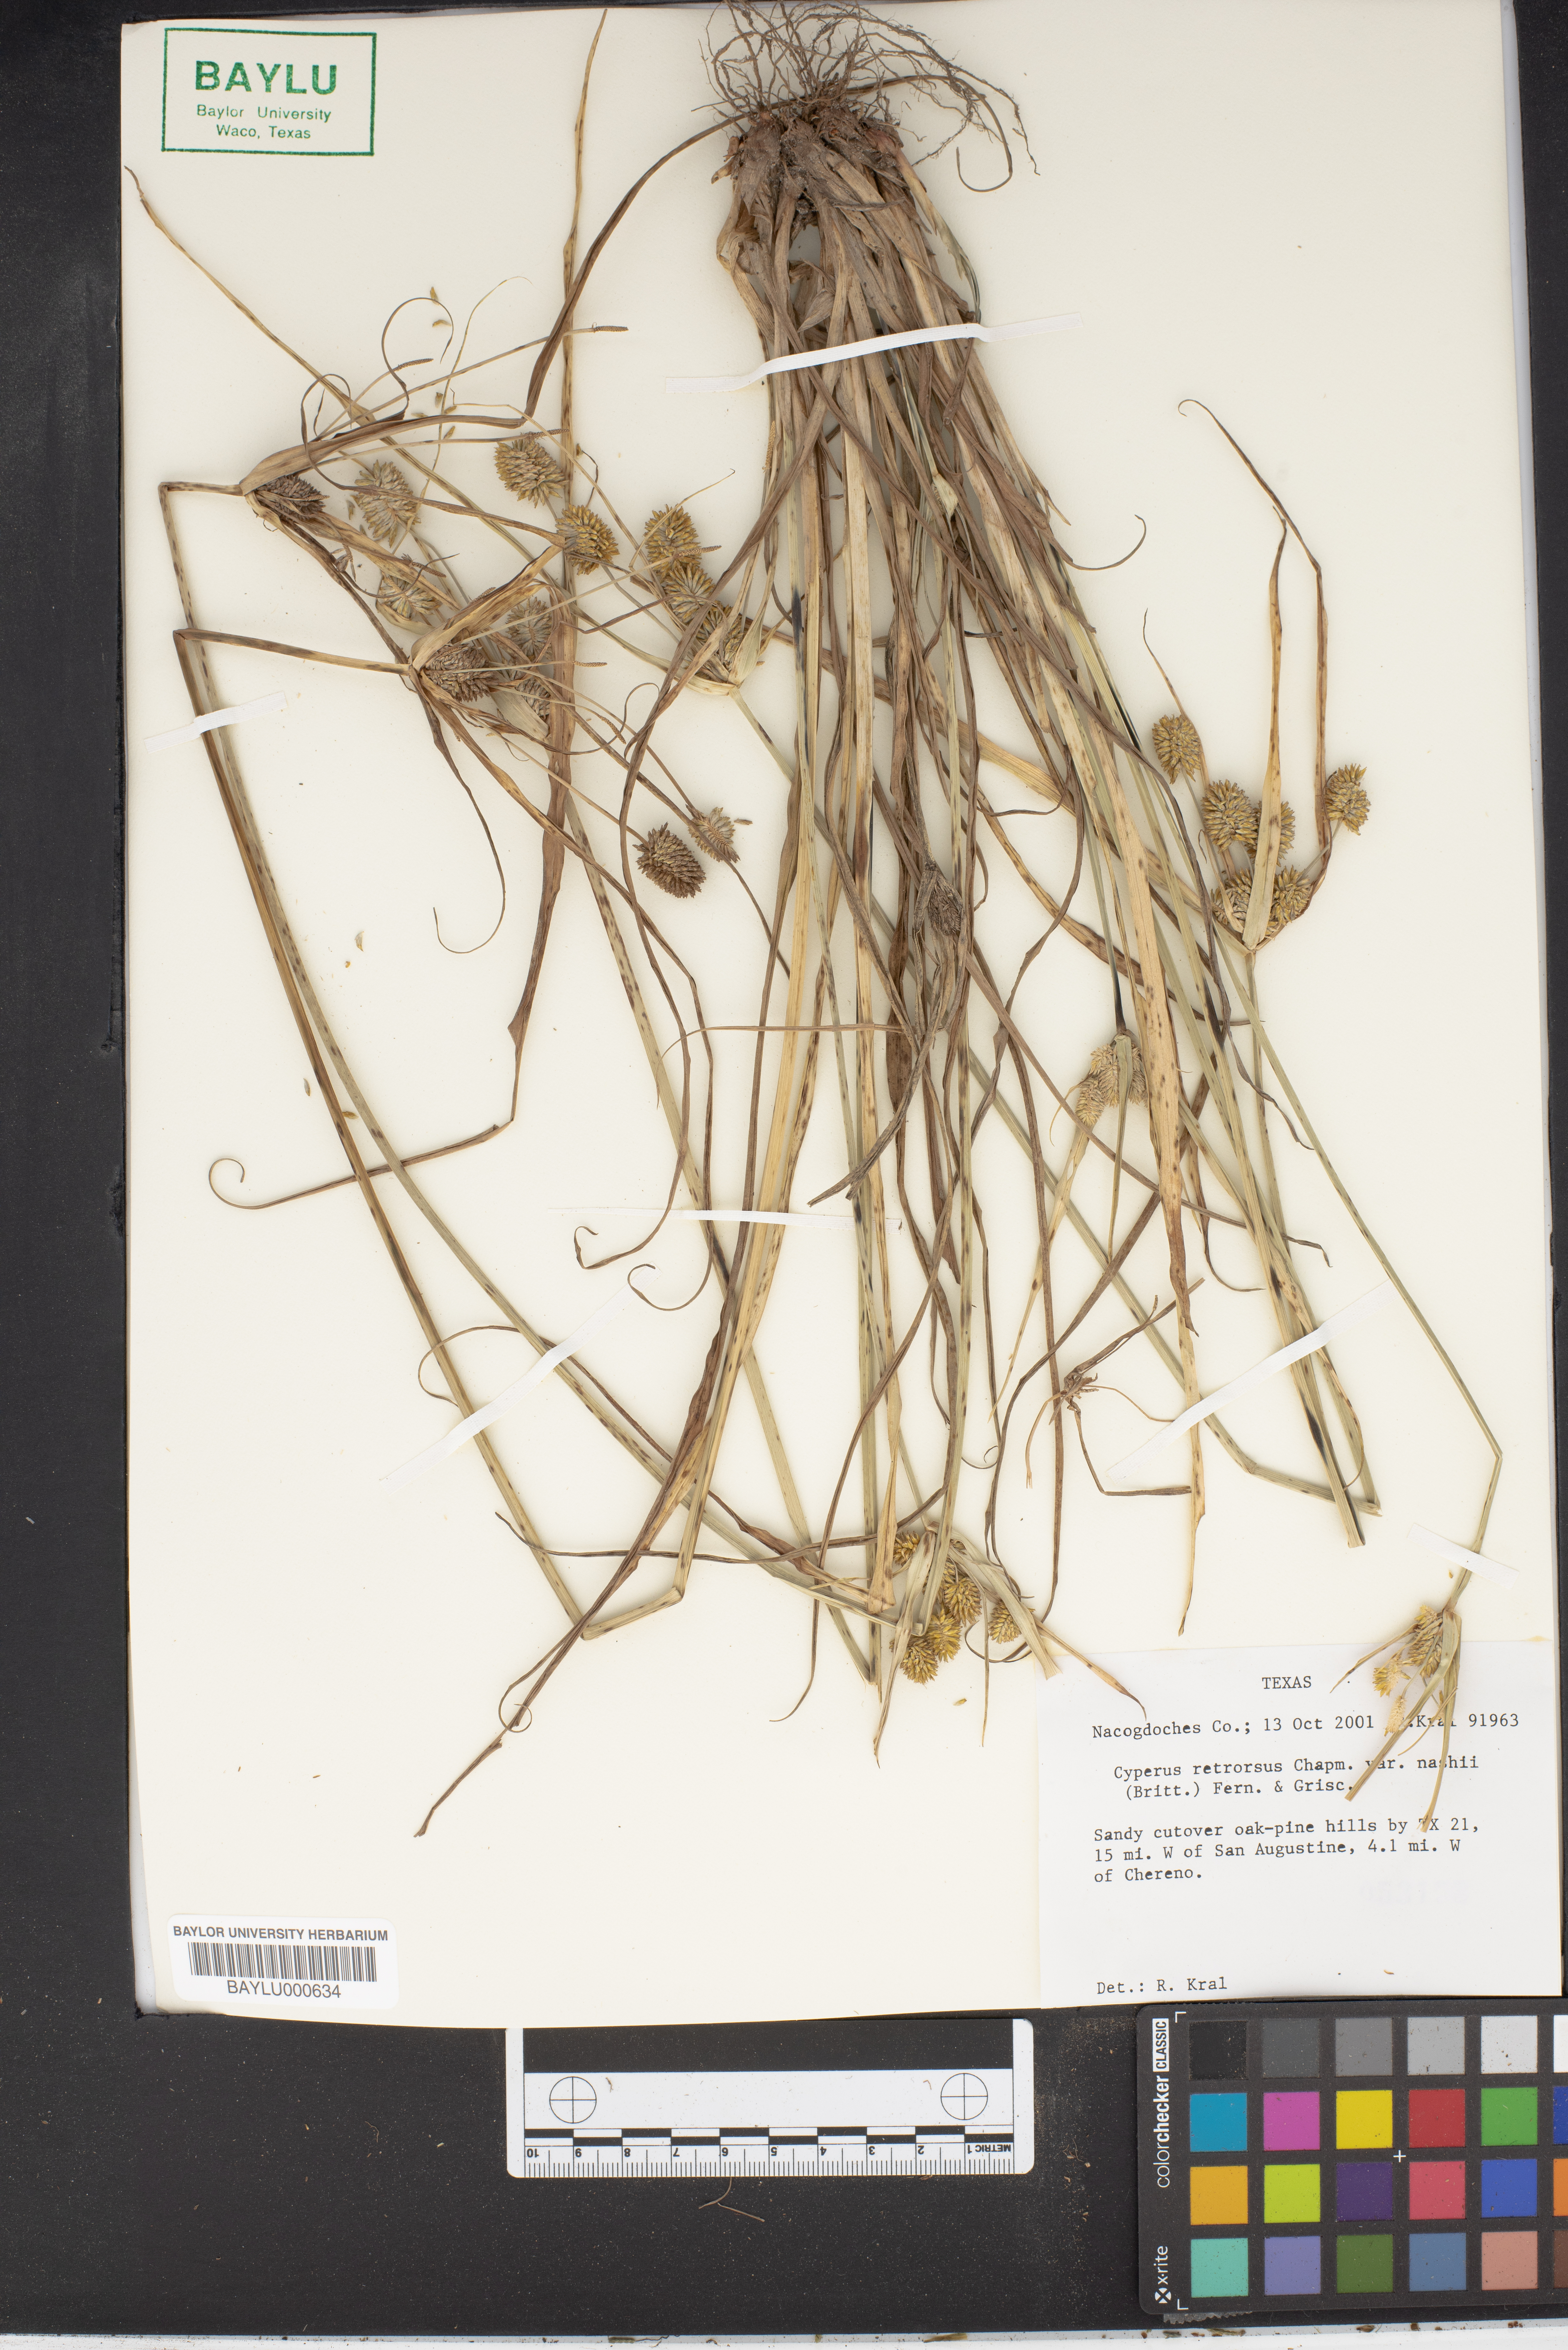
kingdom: Plantae
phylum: Tracheophyta
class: Liliopsida
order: Poales
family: Cyperaceae
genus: Cyperus
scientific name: Cyperus retrorsus
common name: Pinebarren flat sedge
